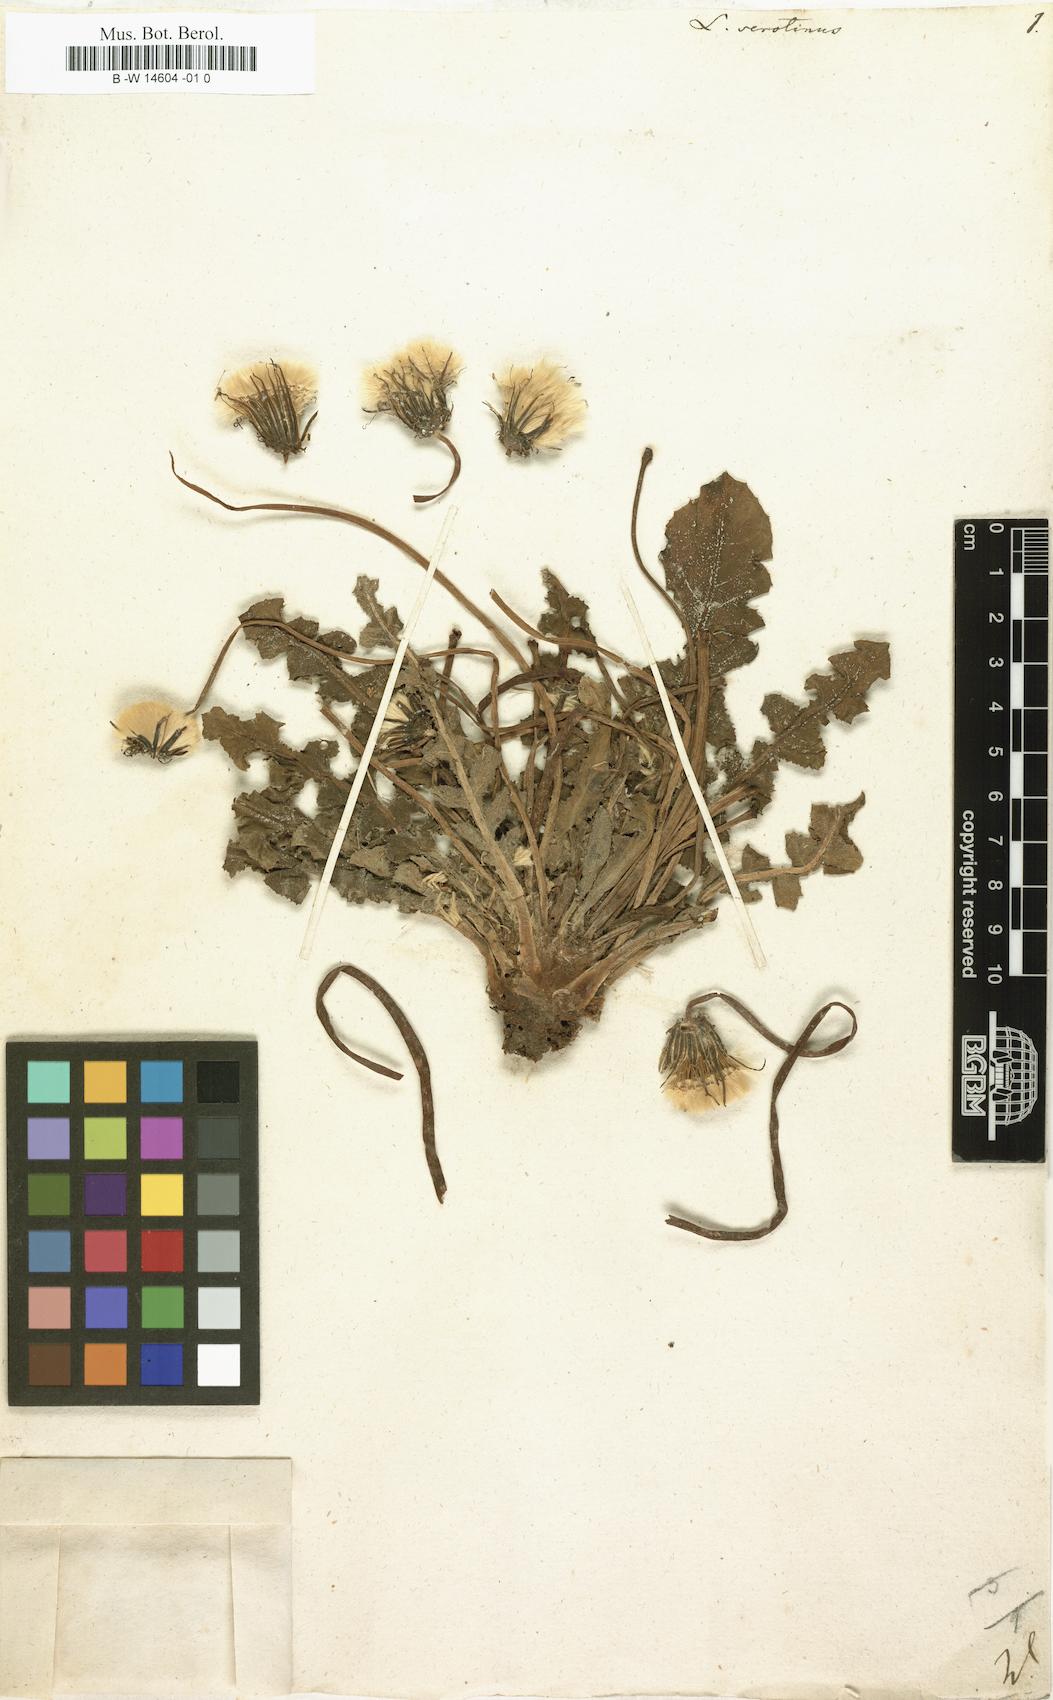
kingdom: Plantae
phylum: Tracheophyta
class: Magnoliopsida
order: Asterales
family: Asteraceae
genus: Leontodon
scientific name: Leontodon serotinus
